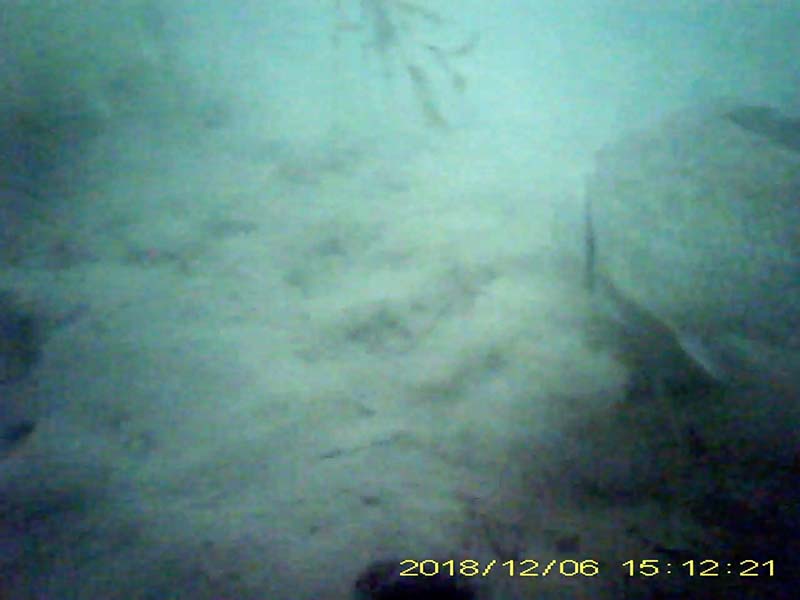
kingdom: Animalia
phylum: Chordata
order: Cypriniformes
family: Cyprinidae
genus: Carassius
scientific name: Carassius langsdorfii
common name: ギンブナ
